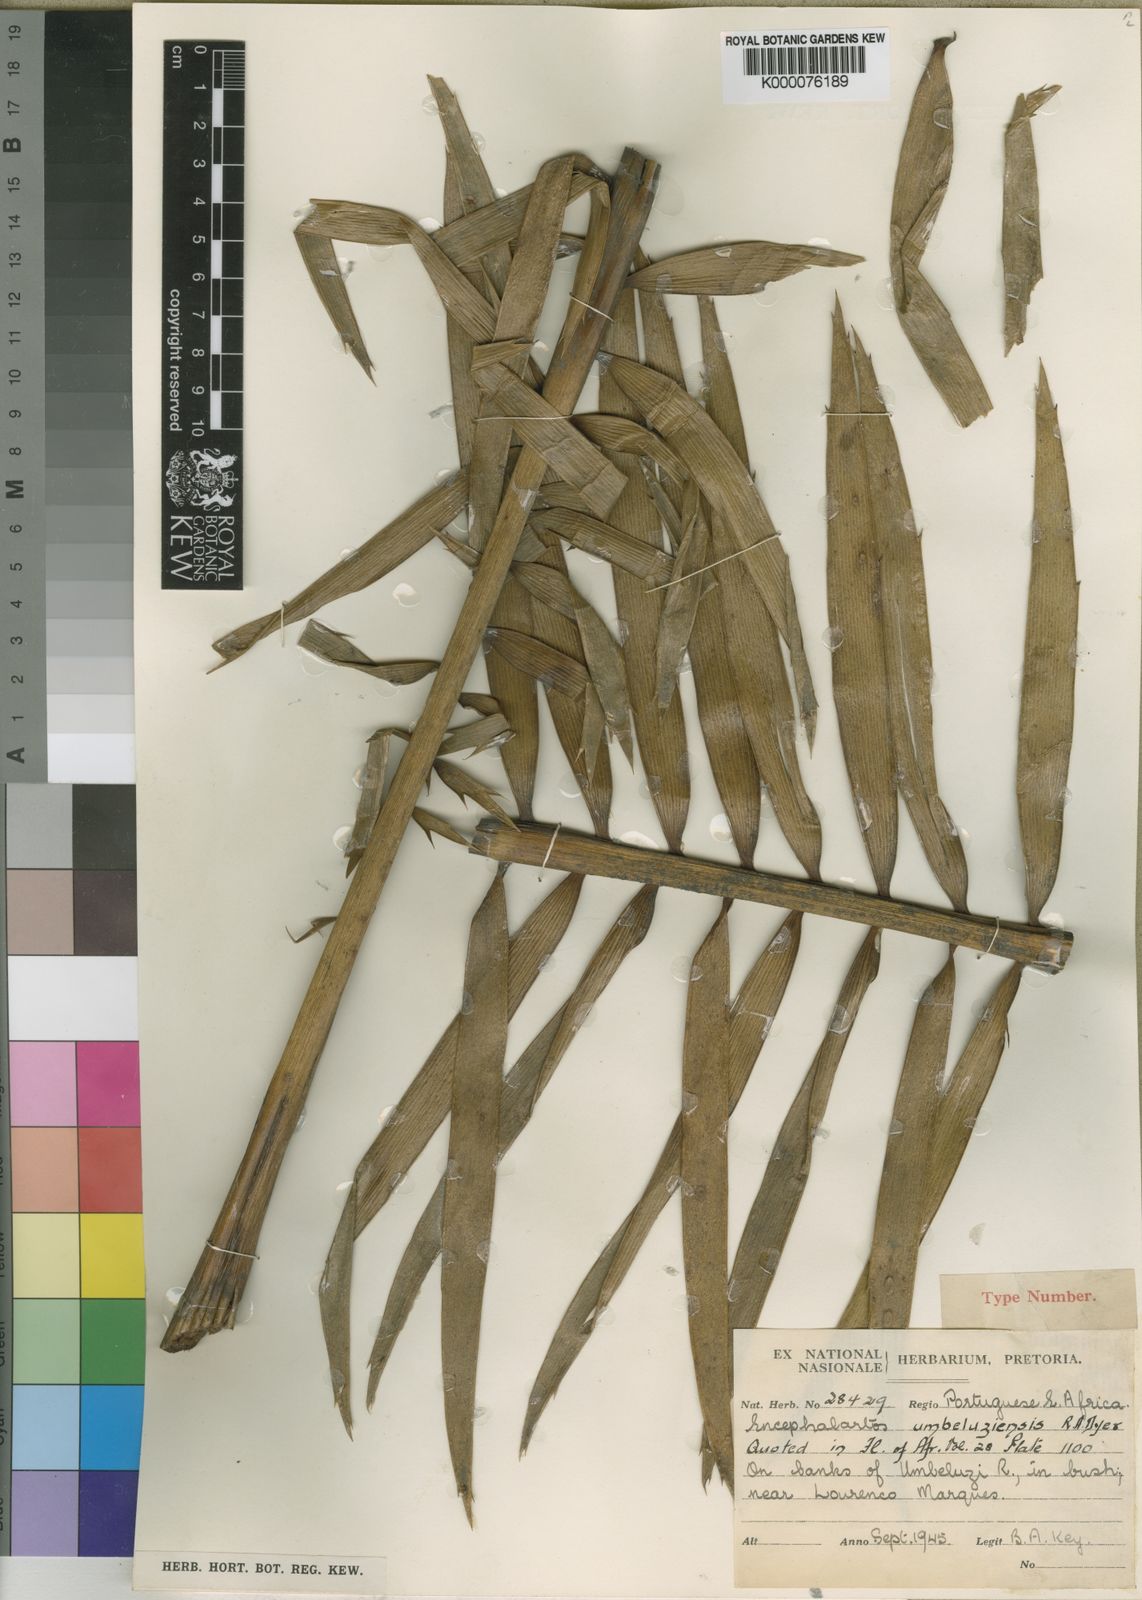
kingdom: Plantae
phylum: Tracheophyta
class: Cycadopsida
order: Cycadales
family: Zamiaceae
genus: Encephalartos
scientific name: Encephalartos umbeluziensis
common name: Umbeluzi cycad
